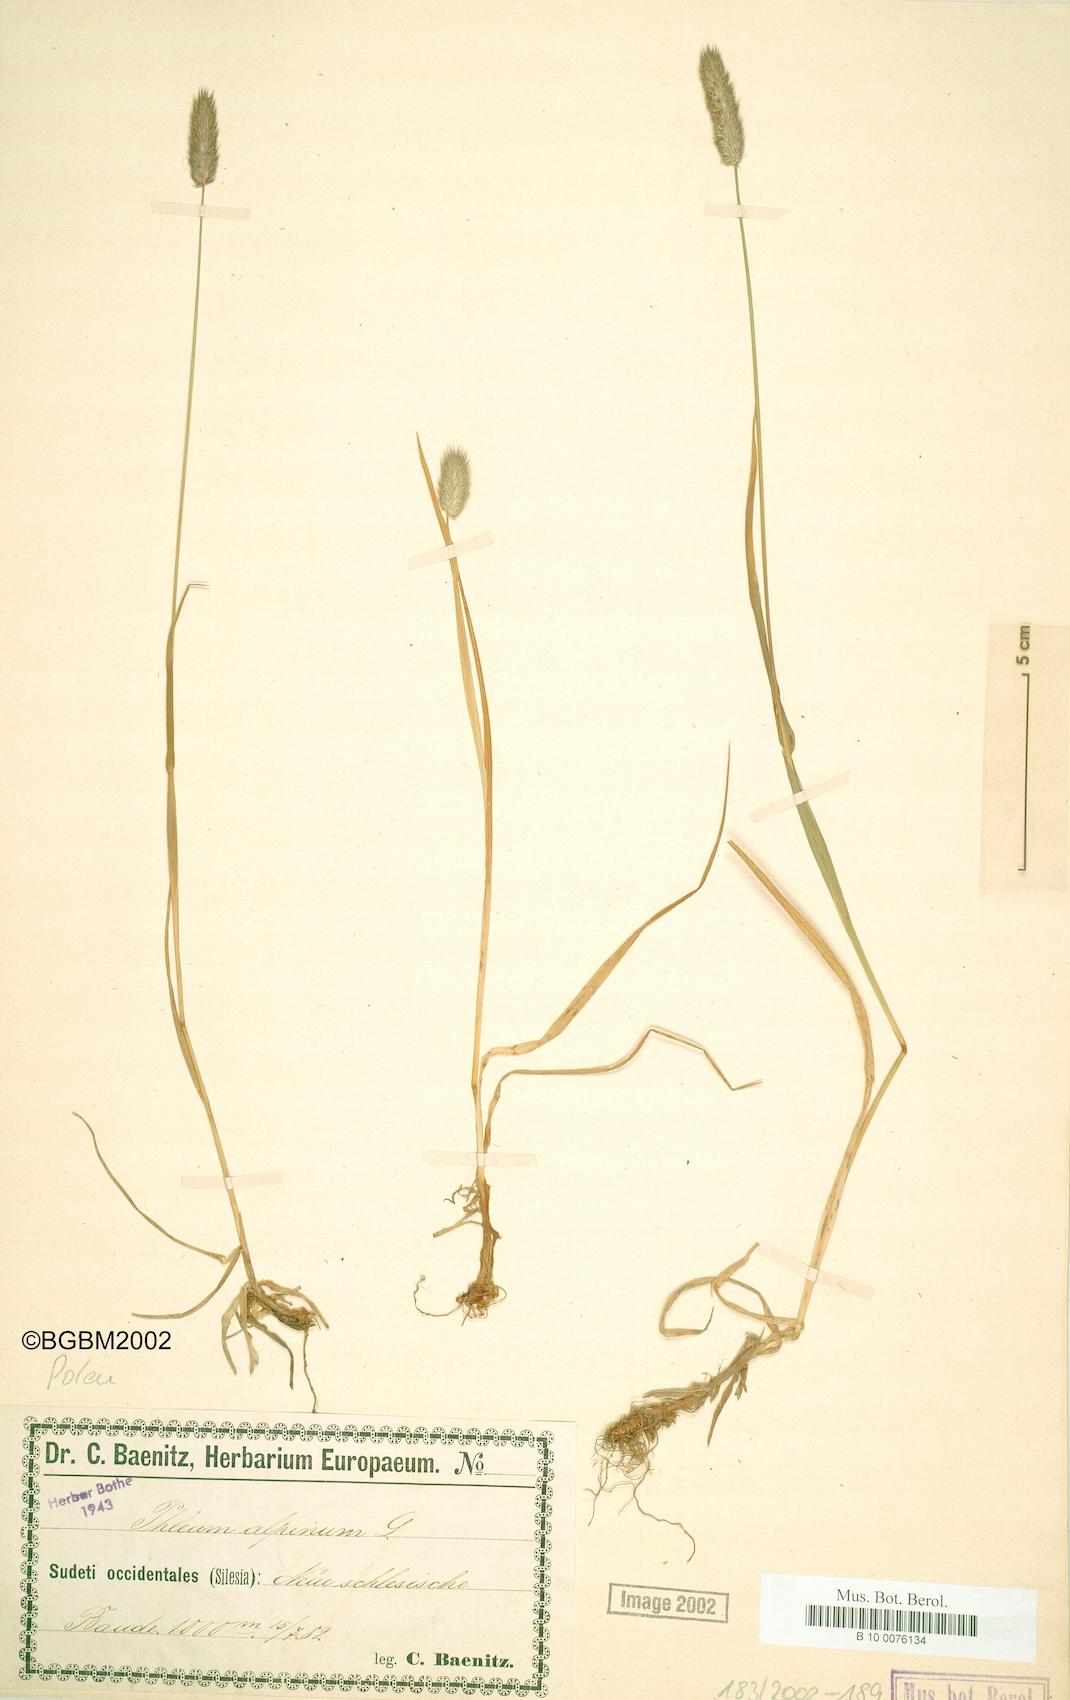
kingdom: Plantae
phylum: Tracheophyta
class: Liliopsida
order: Poales
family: Poaceae
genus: Phleum
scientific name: Phleum alpinum
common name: Alpine cat's-tail
